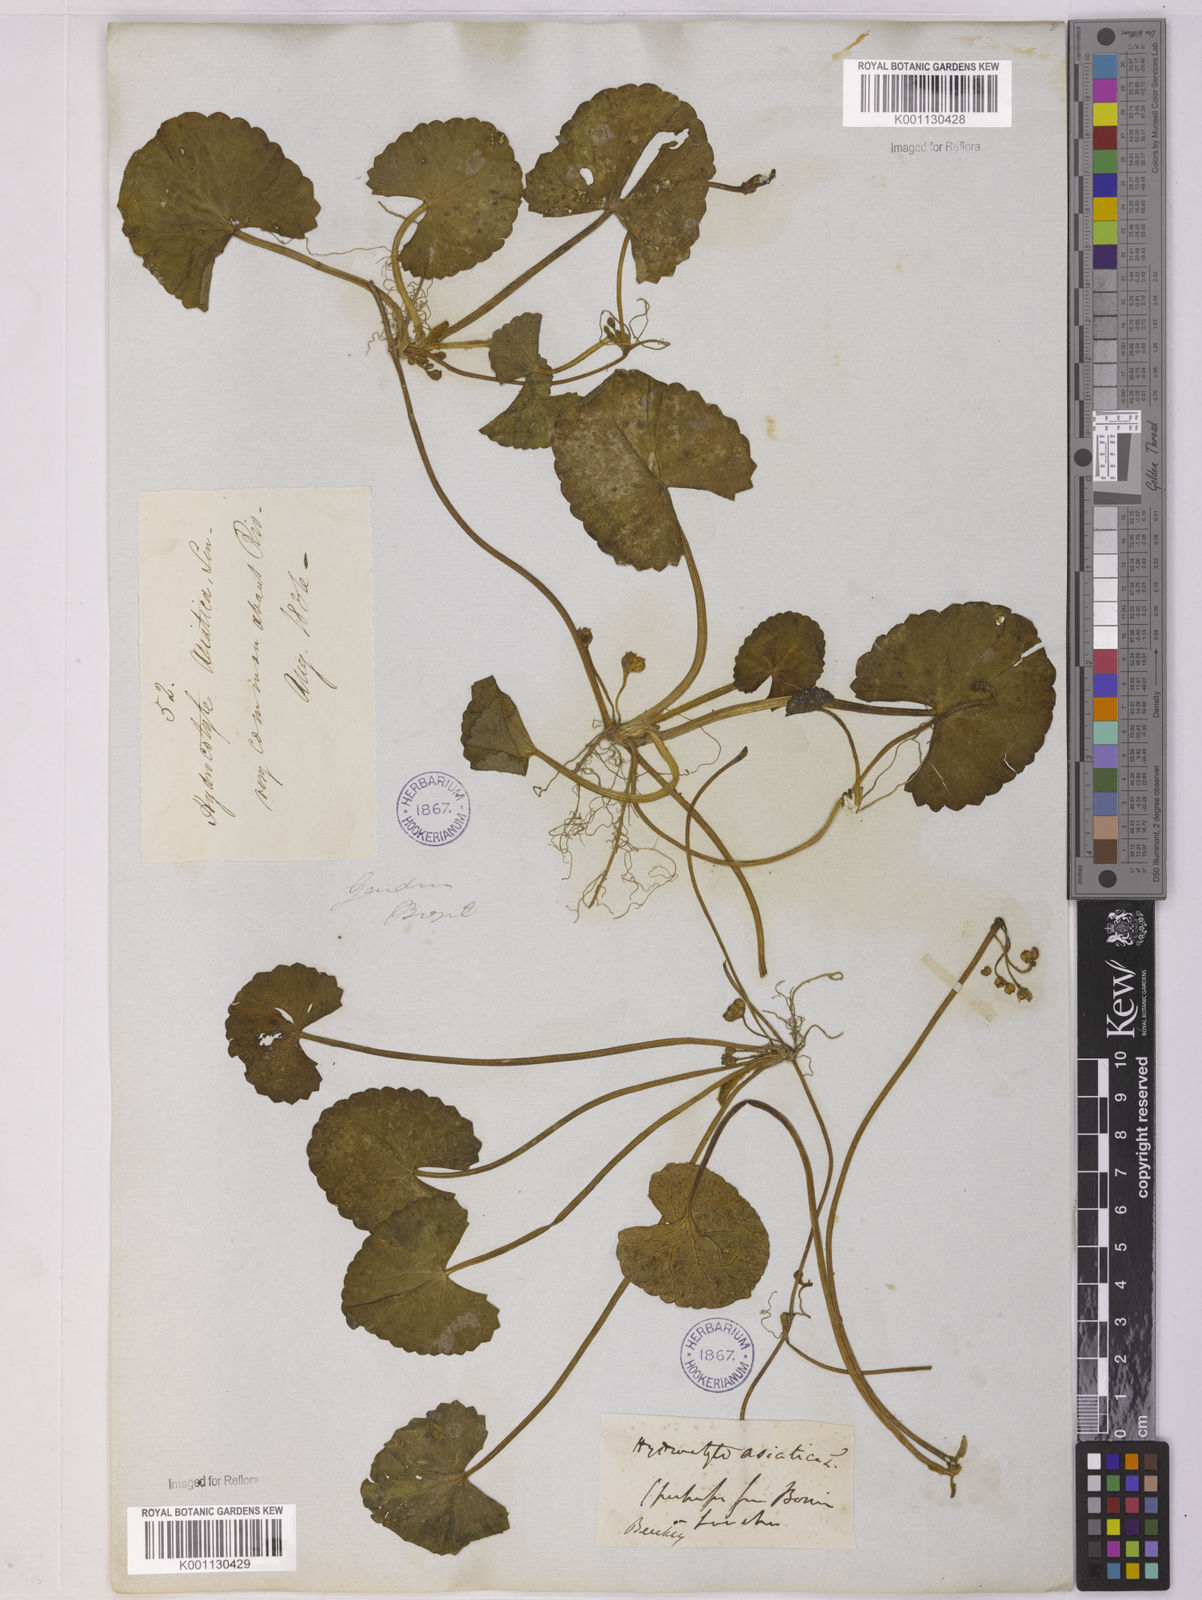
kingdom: Plantae
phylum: Tracheophyta
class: Magnoliopsida
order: Apiales
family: Apiaceae
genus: Centella
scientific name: Centella erecta
